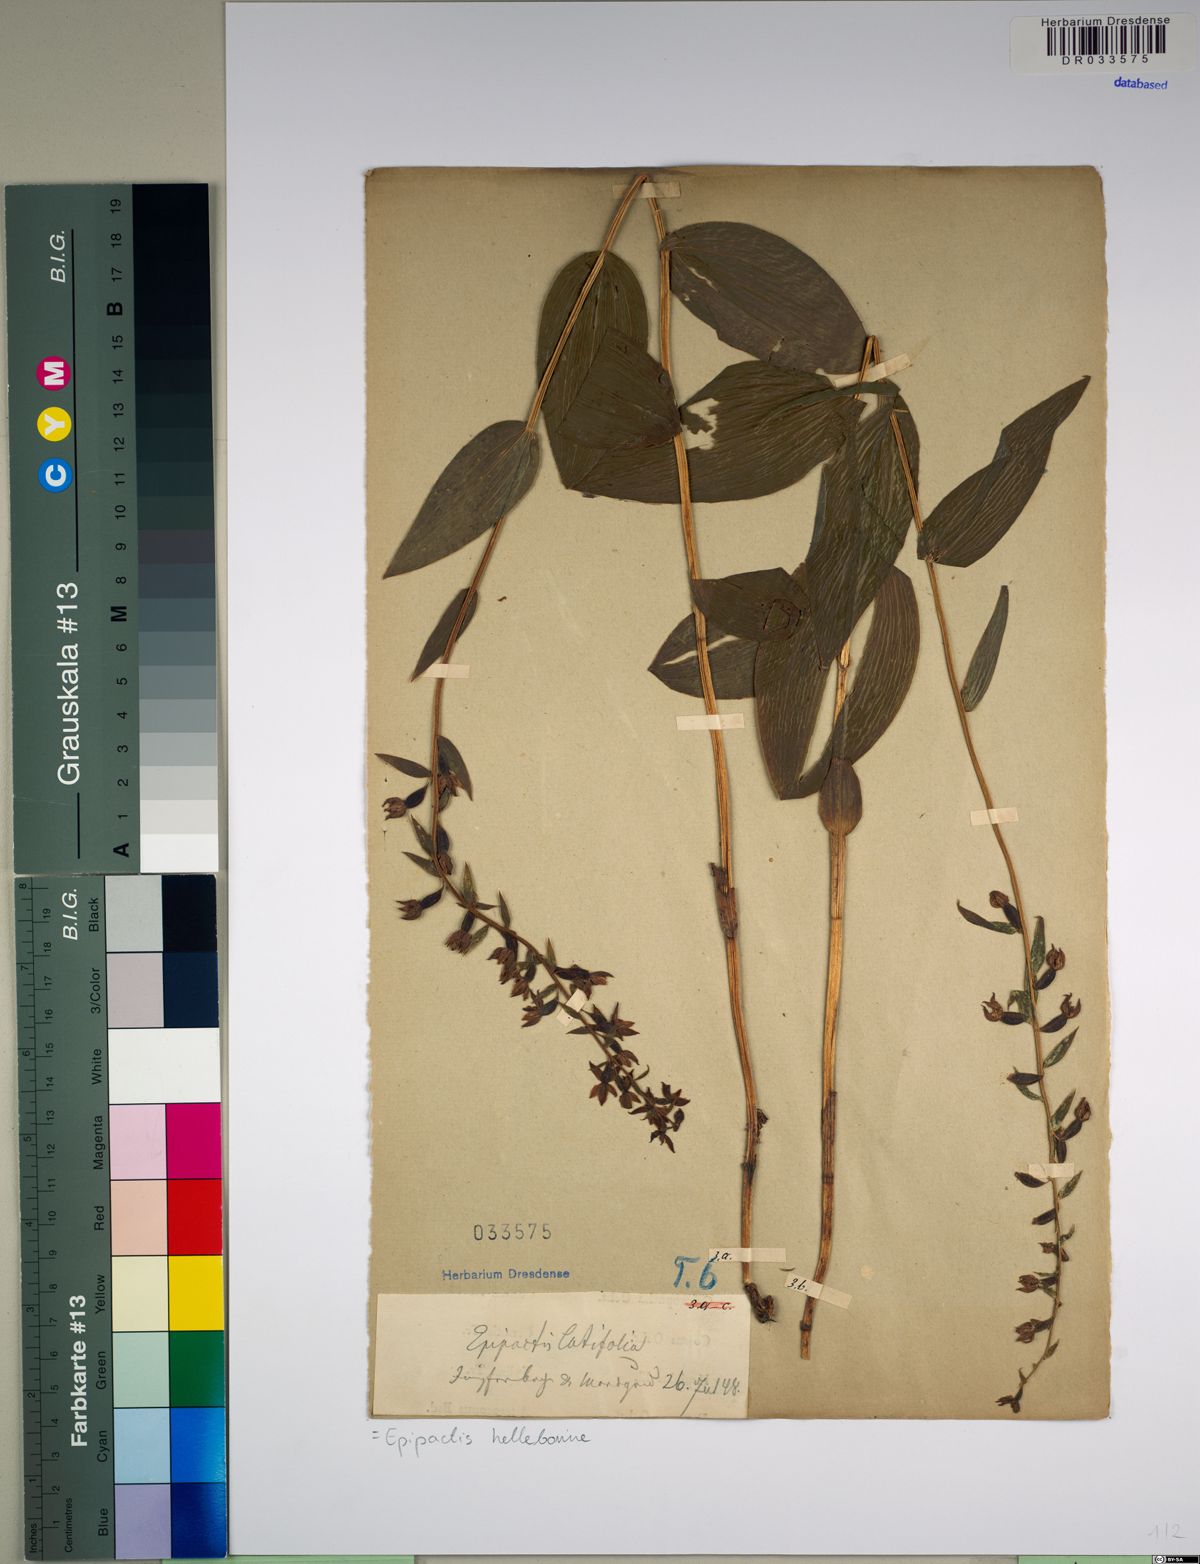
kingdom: Plantae
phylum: Tracheophyta
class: Liliopsida
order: Asparagales
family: Orchidaceae
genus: Epipactis
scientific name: Epipactis helleborine
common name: Broad-leaved helleborine
